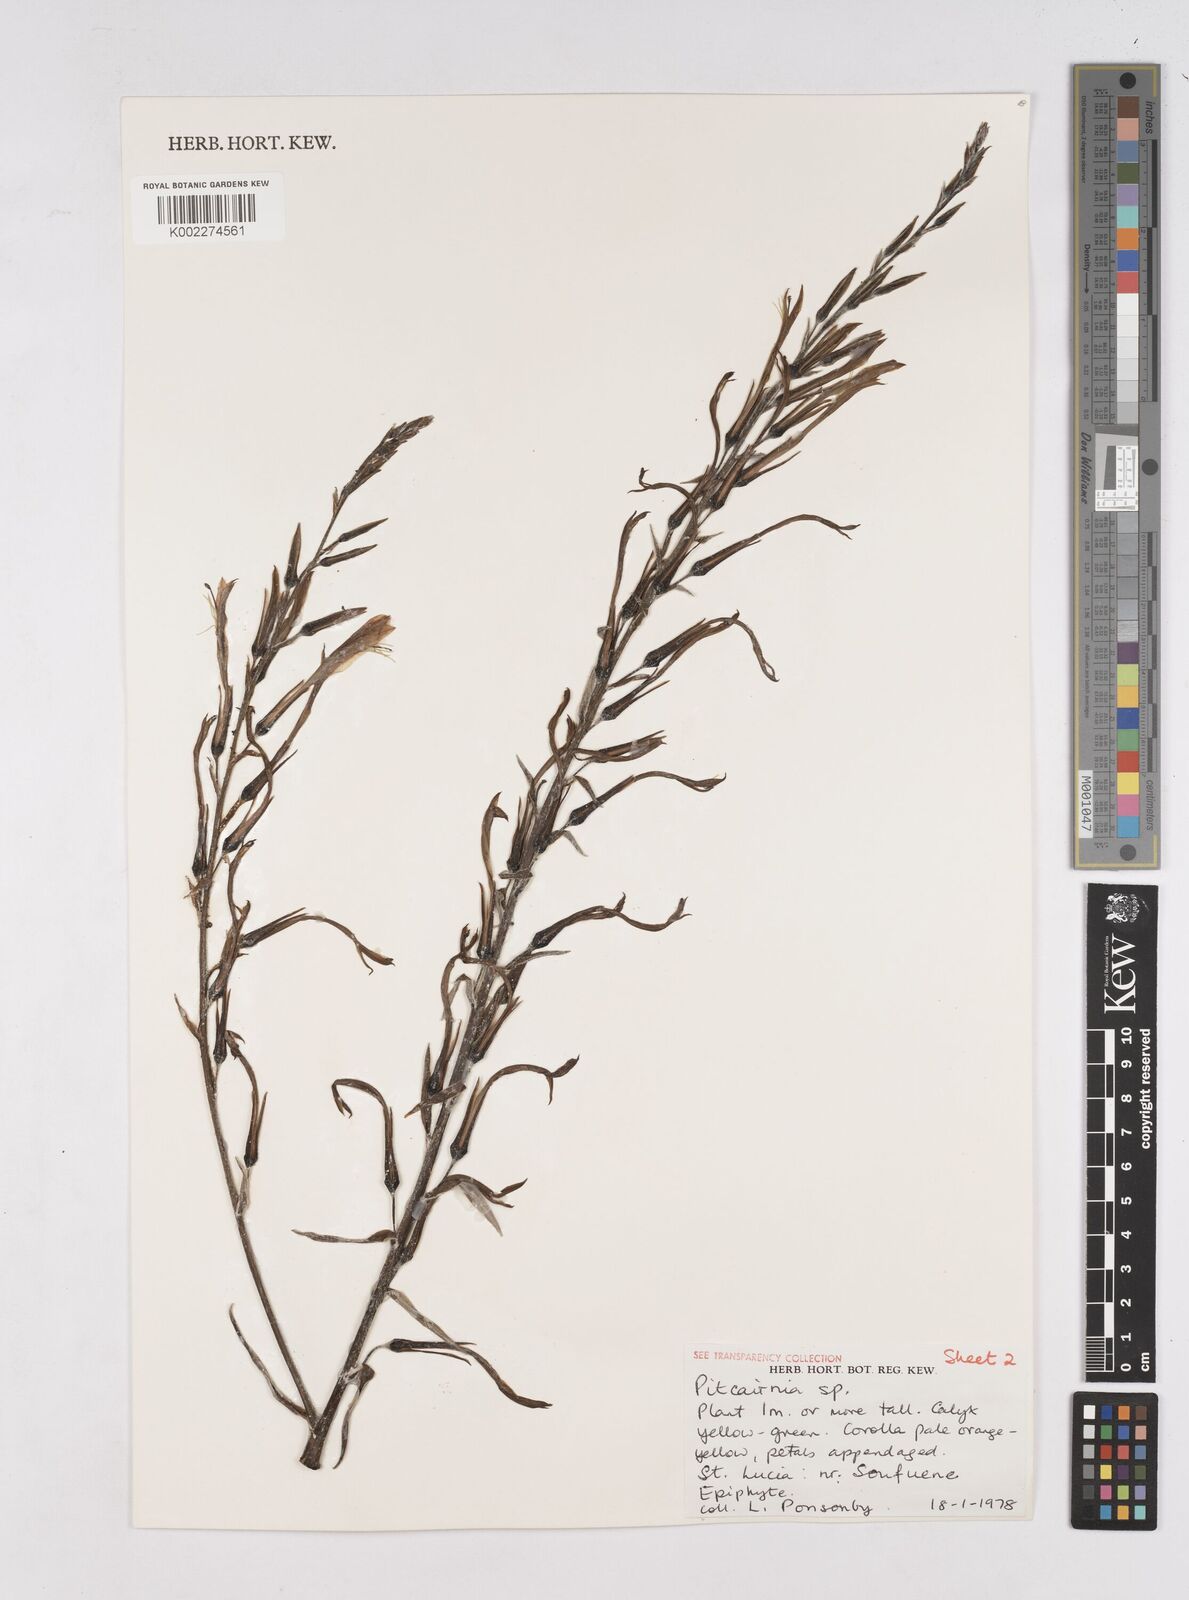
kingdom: Plantae
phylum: Tracheophyta
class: Liliopsida
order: Poales
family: Bromeliaceae
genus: Pitcairnia
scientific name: Pitcairnia
